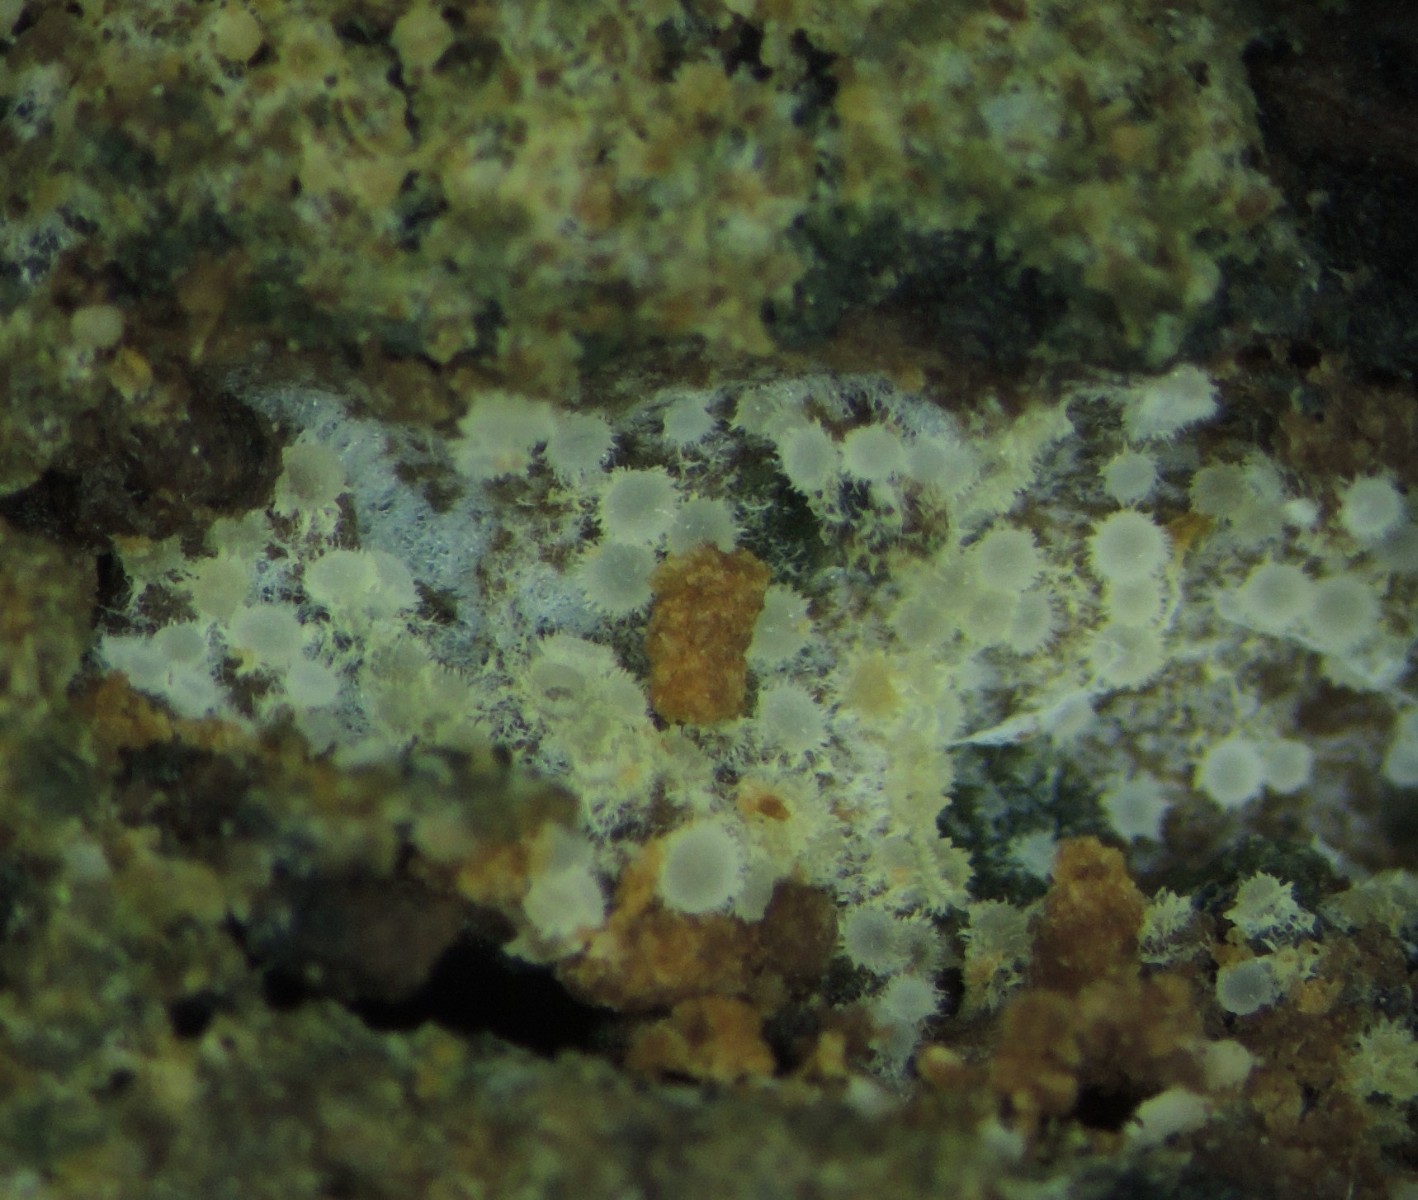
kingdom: Fungi
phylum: Ascomycota
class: Leotiomycetes
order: Helotiales
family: Arachnopezizaceae
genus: Arachnopeziza
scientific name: Arachnopeziza aurata
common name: bleggul spindskive
